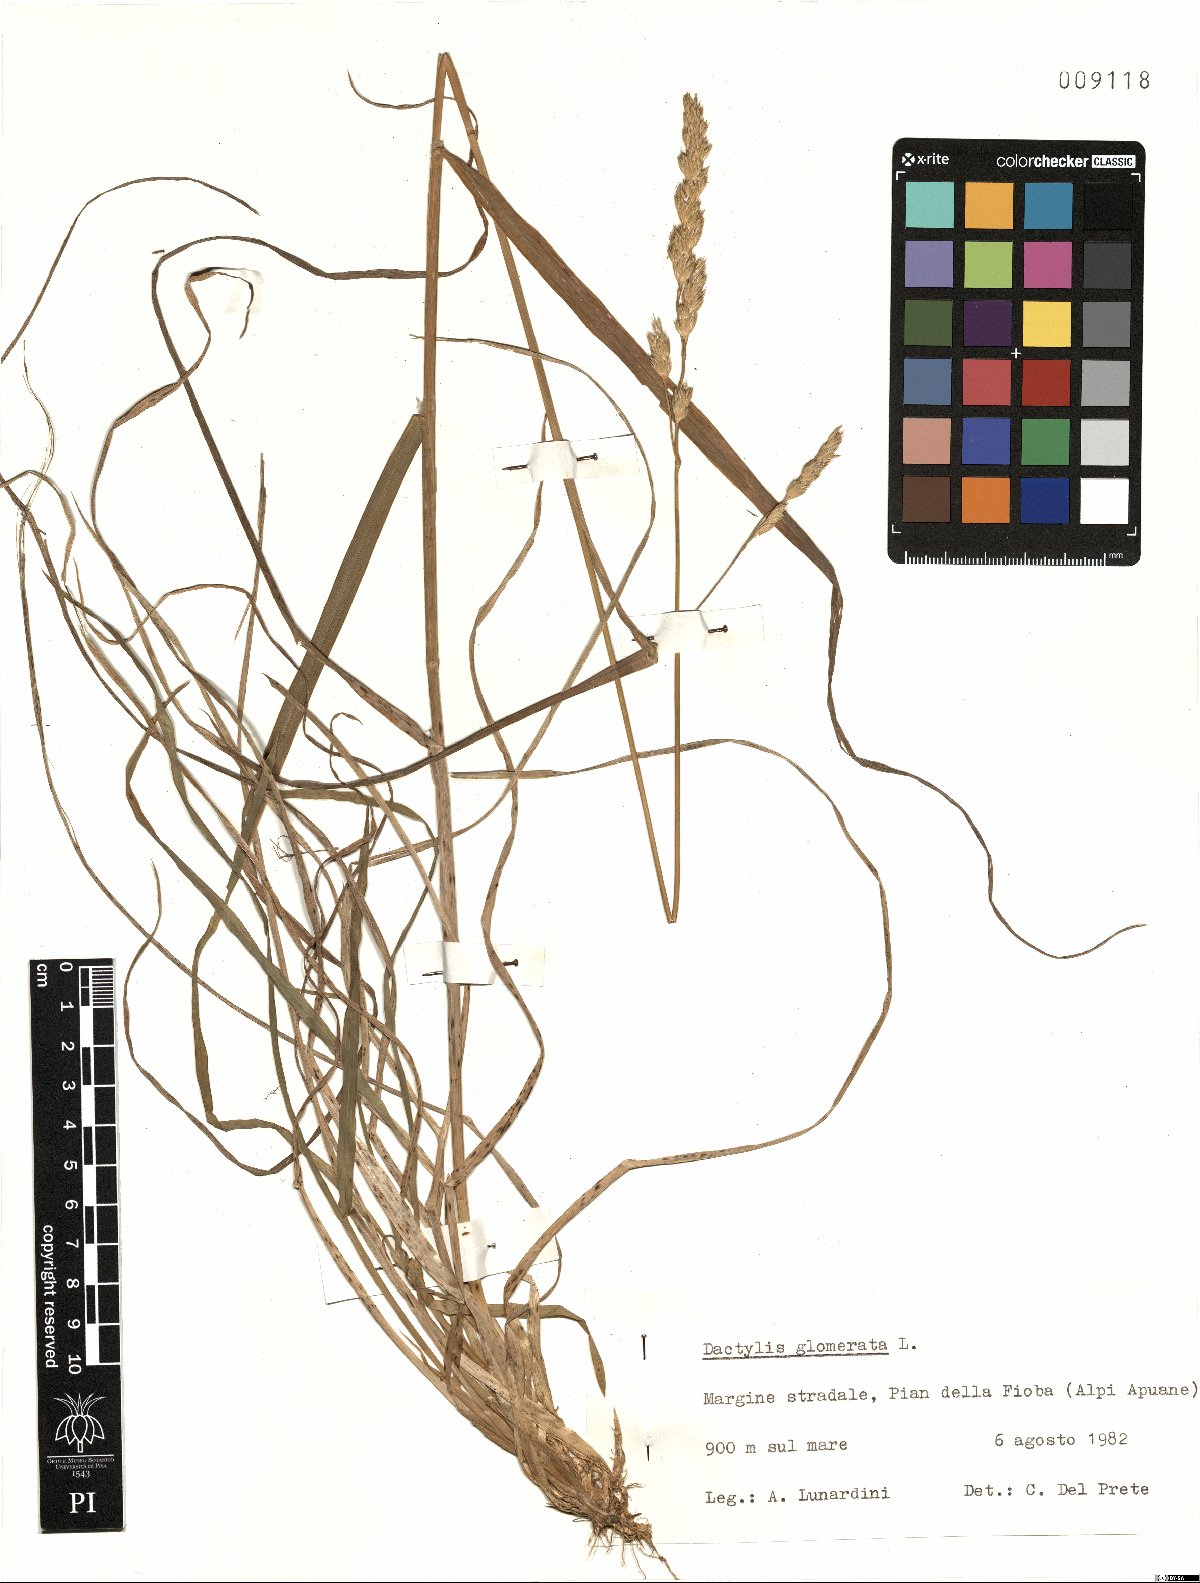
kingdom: Plantae
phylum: Tracheophyta
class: Liliopsida
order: Poales
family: Poaceae
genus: Dactylis
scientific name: Dactylis glomerata
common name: Orchardgrass
